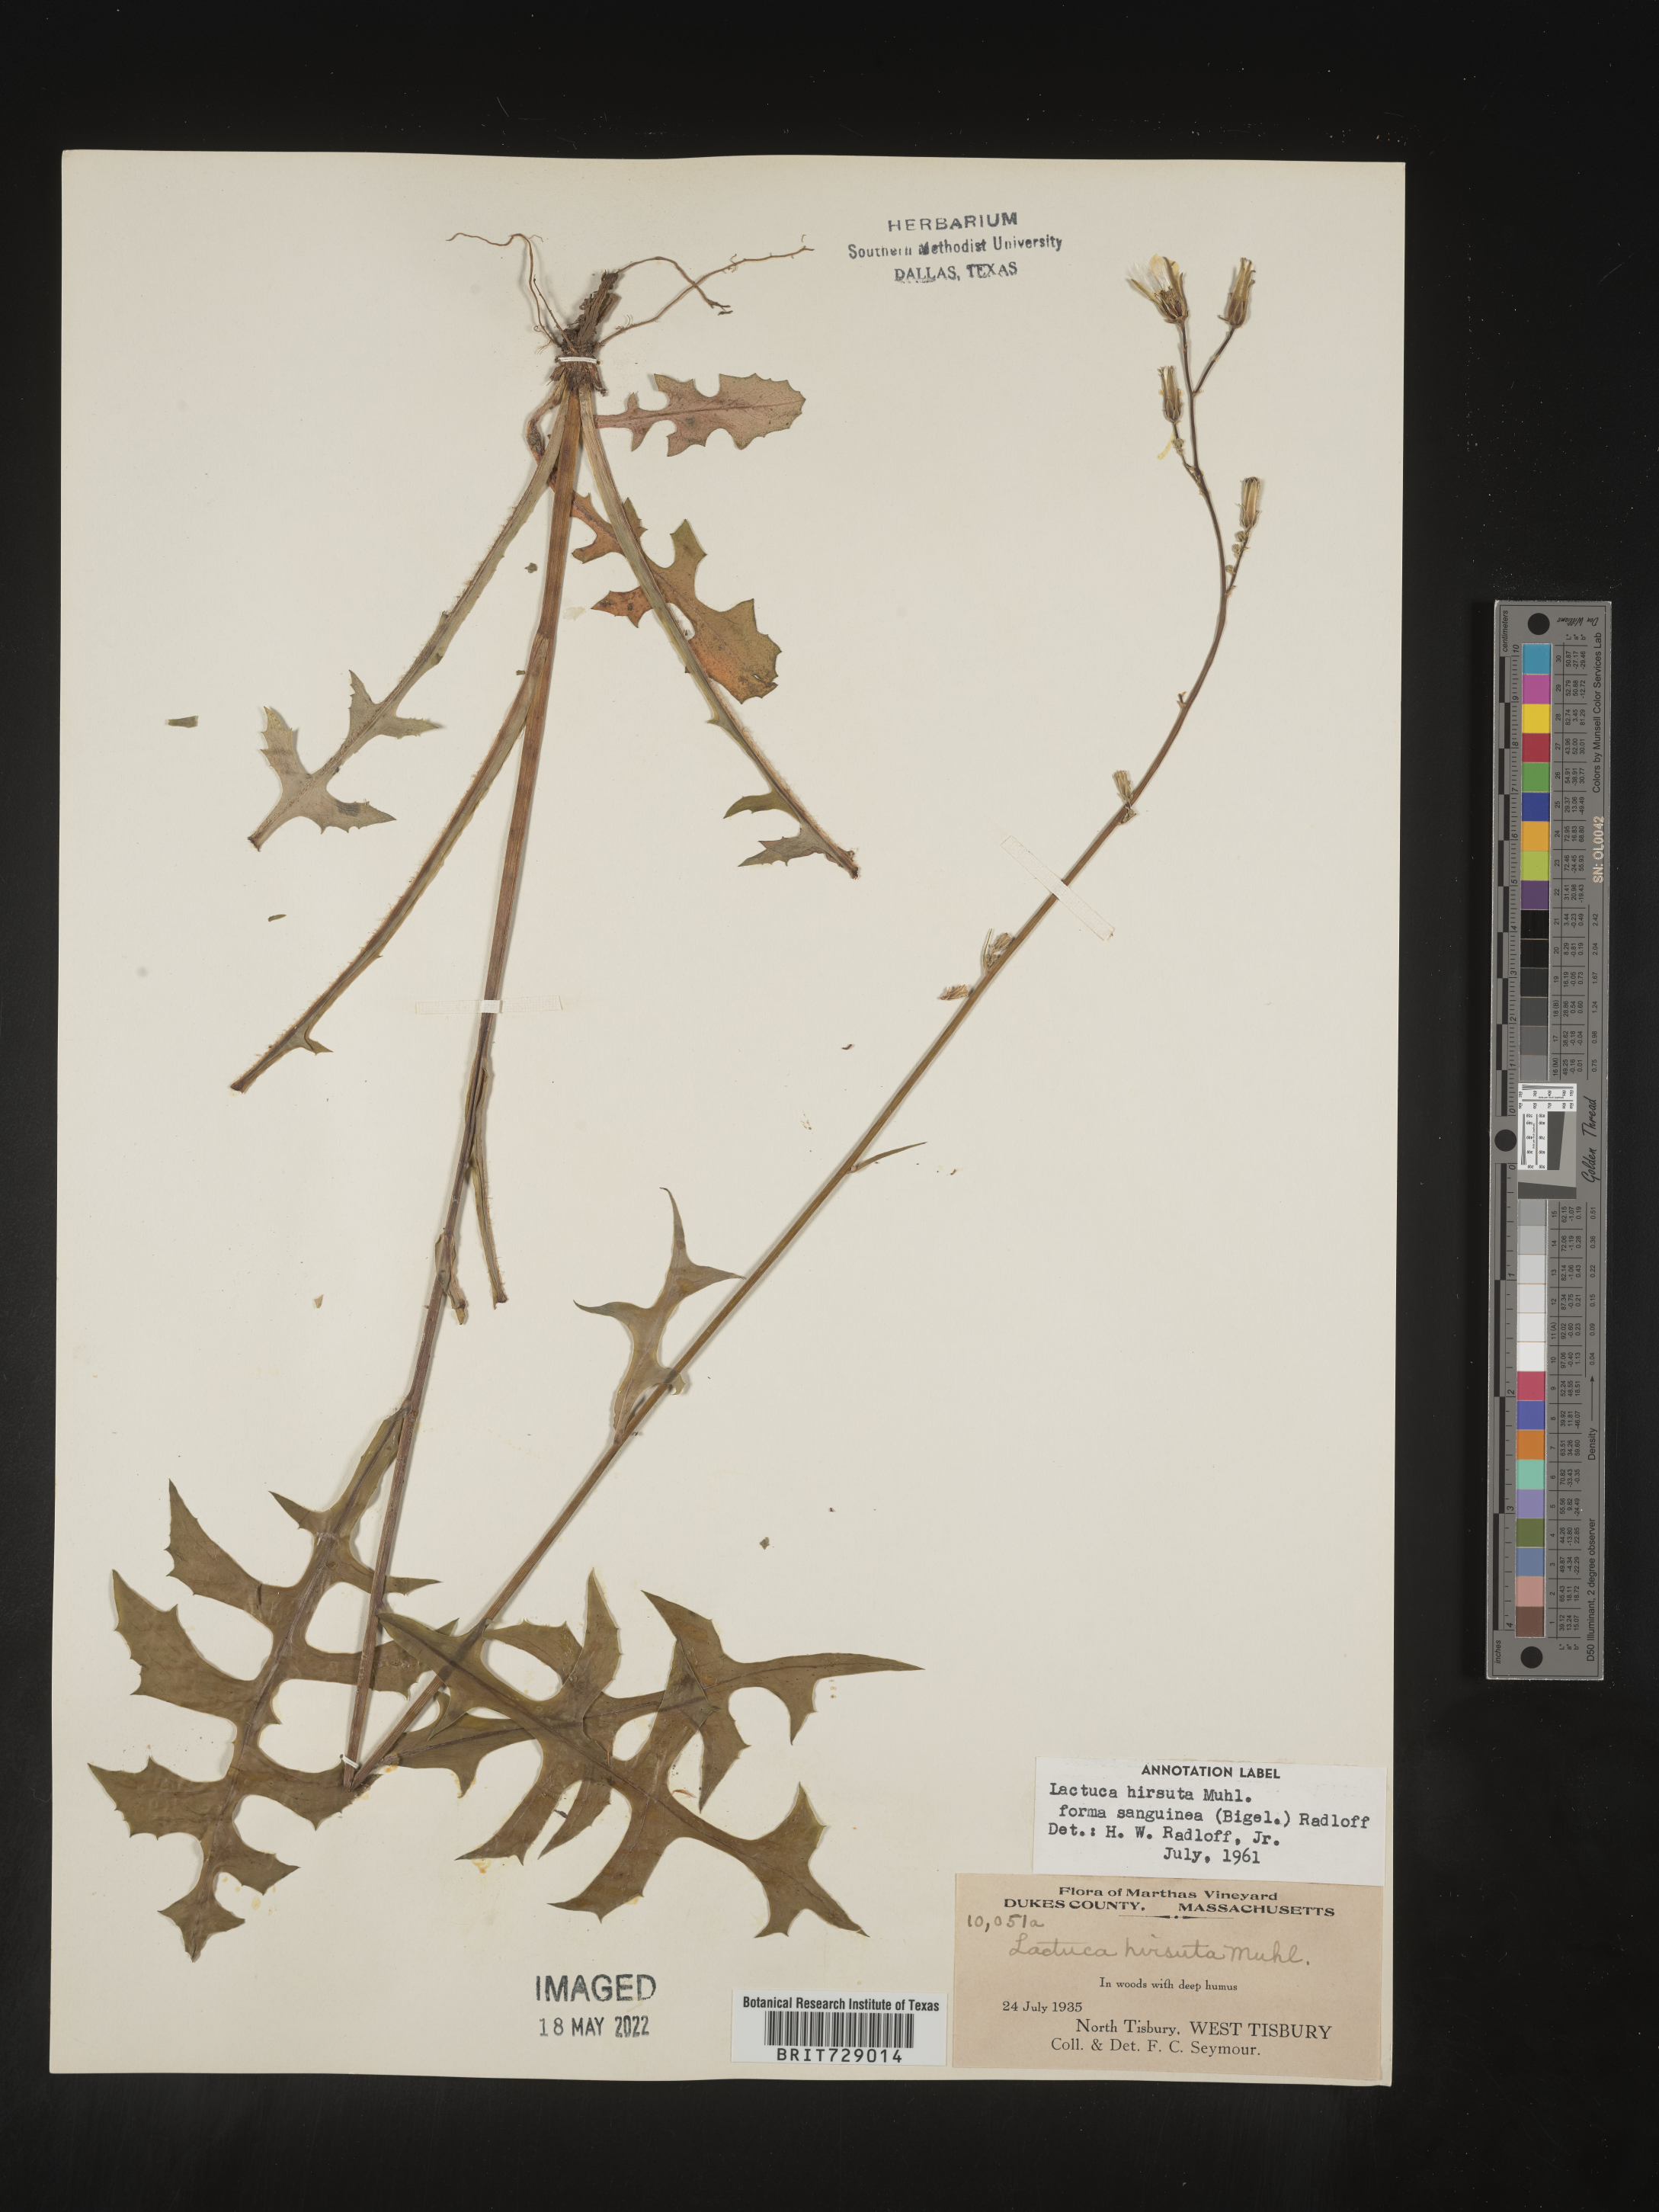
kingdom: Plantae
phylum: Tracheophyta
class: Magnoliopsida
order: Asterales
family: Asteraceae
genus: Lactuca
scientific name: Lactuca hirsuta
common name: Hairy lettuce
